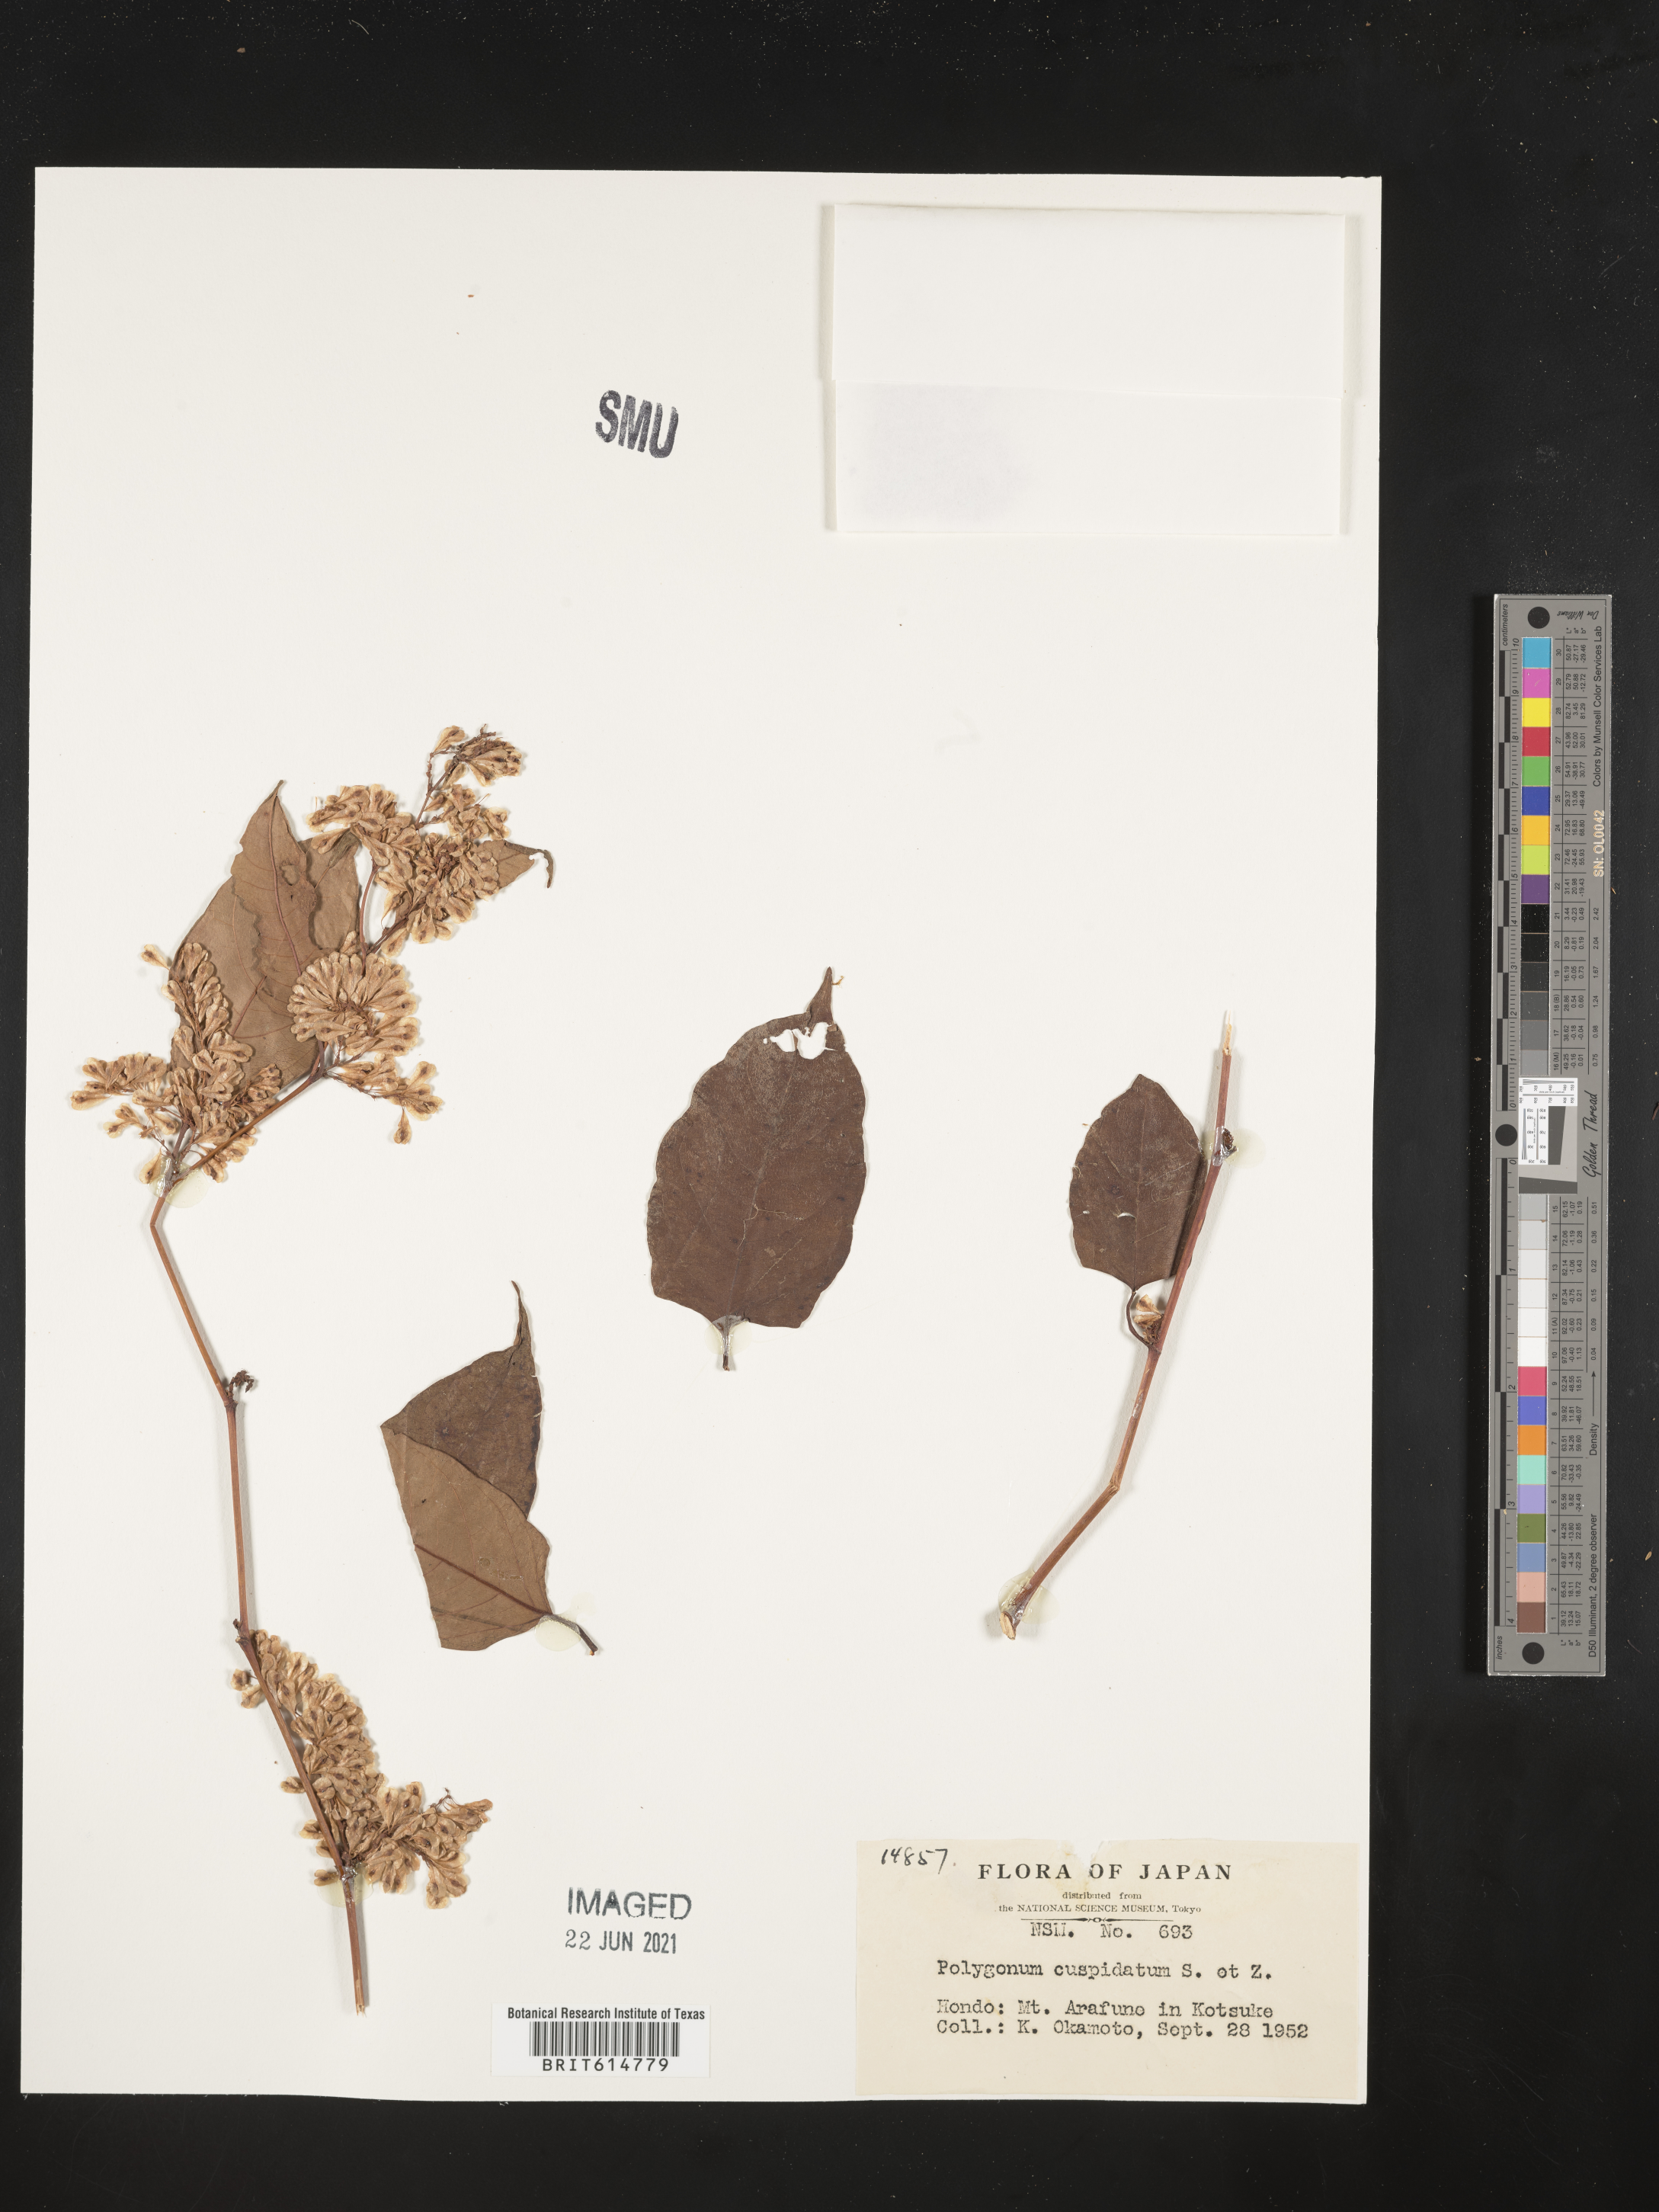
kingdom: Plantae
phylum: Tracheophyta
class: Magnoliopsida
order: Caryophyllales
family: Polygonaceae
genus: Reynoutria
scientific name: Reynoutria japonica
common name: Japanese knotweed
